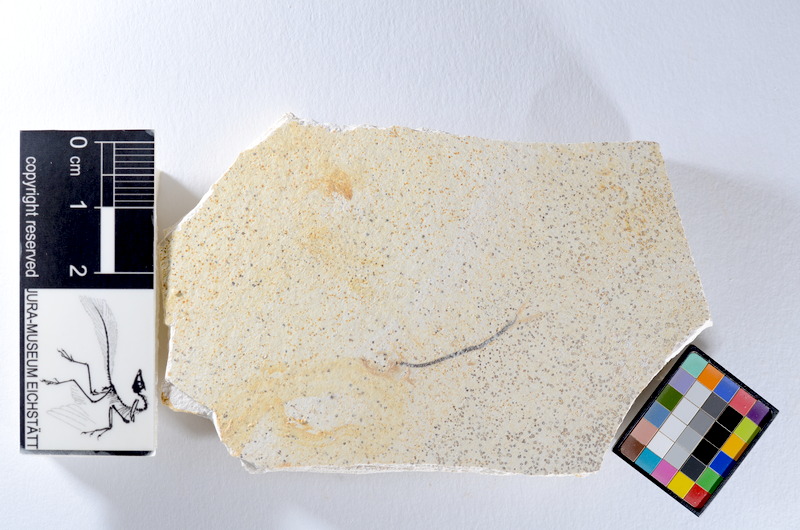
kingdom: Animalia
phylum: Chordata
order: Salmoniformes
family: Orthogonikleithridae
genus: Orthogonikleithrus
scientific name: Orthogonikleithrus hoelli
